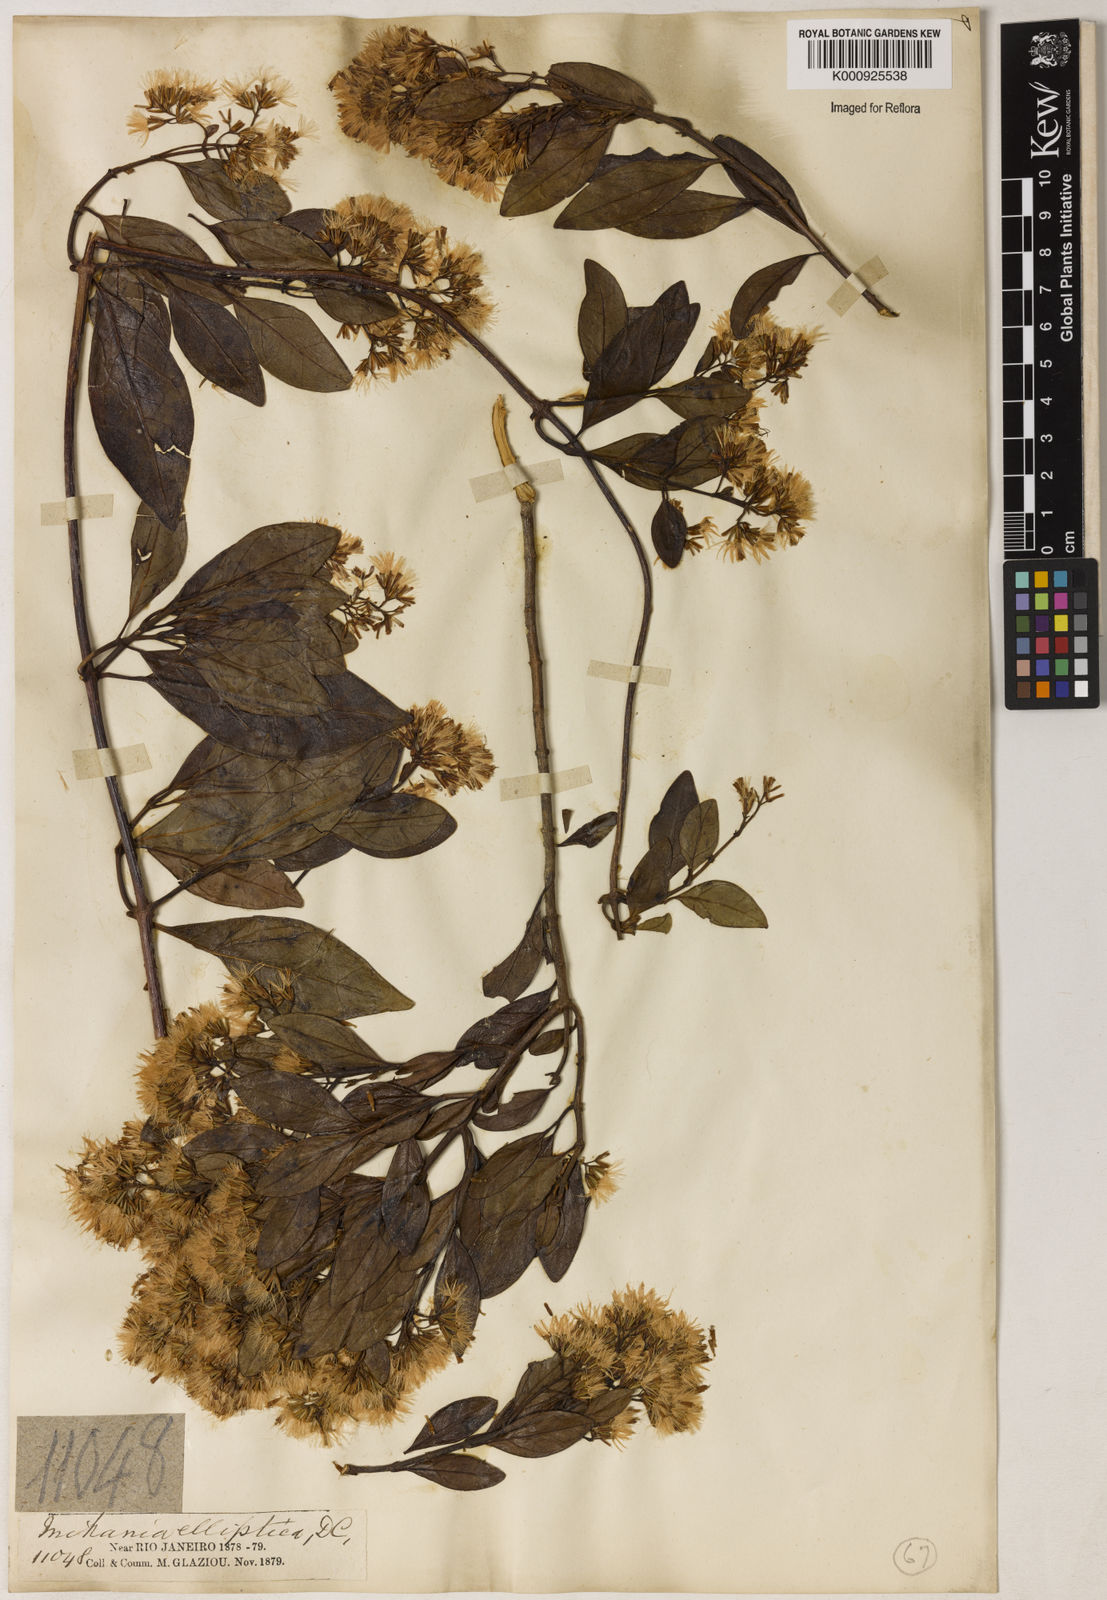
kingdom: Plantae
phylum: Tracheophyta
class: Magnoliopsida
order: Asterales
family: Asteraceae
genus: Mikania
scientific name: Mikania lindbergii
